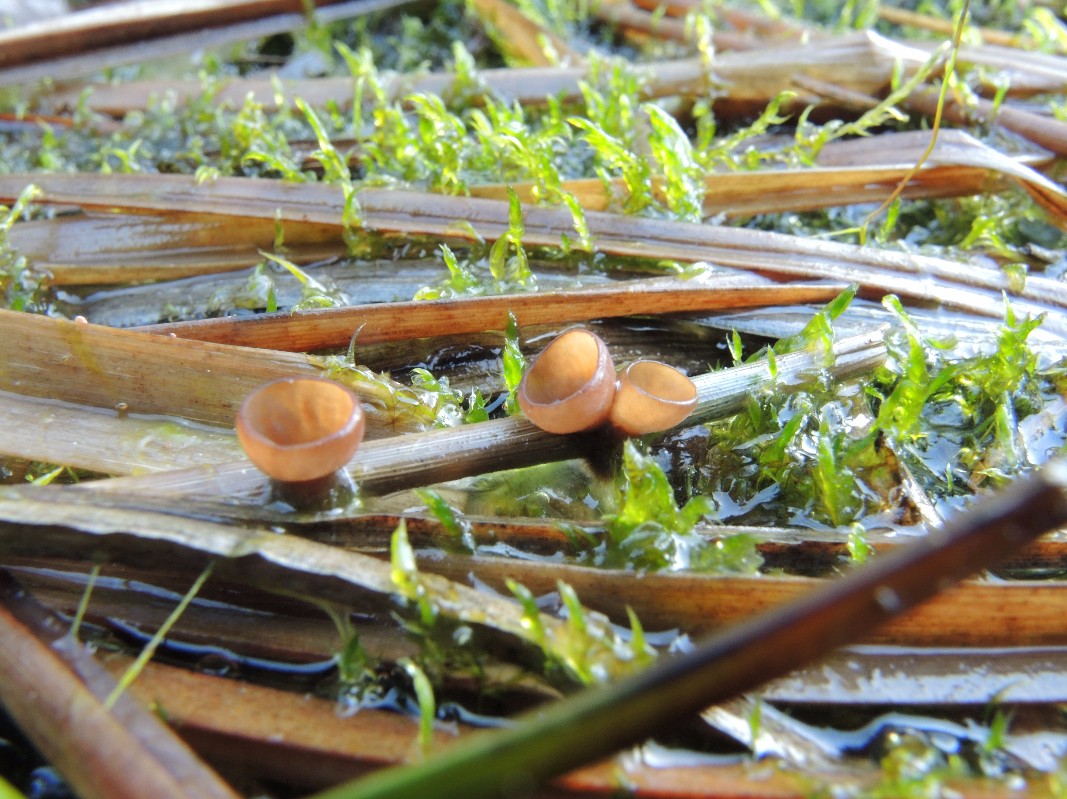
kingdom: Fungi
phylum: Ascomycota
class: Leotiomycetes
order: Helotiales
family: Sclerotiniaceae
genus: Myriosclerotinia
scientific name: Myriosclerotinia
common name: knoldskive
